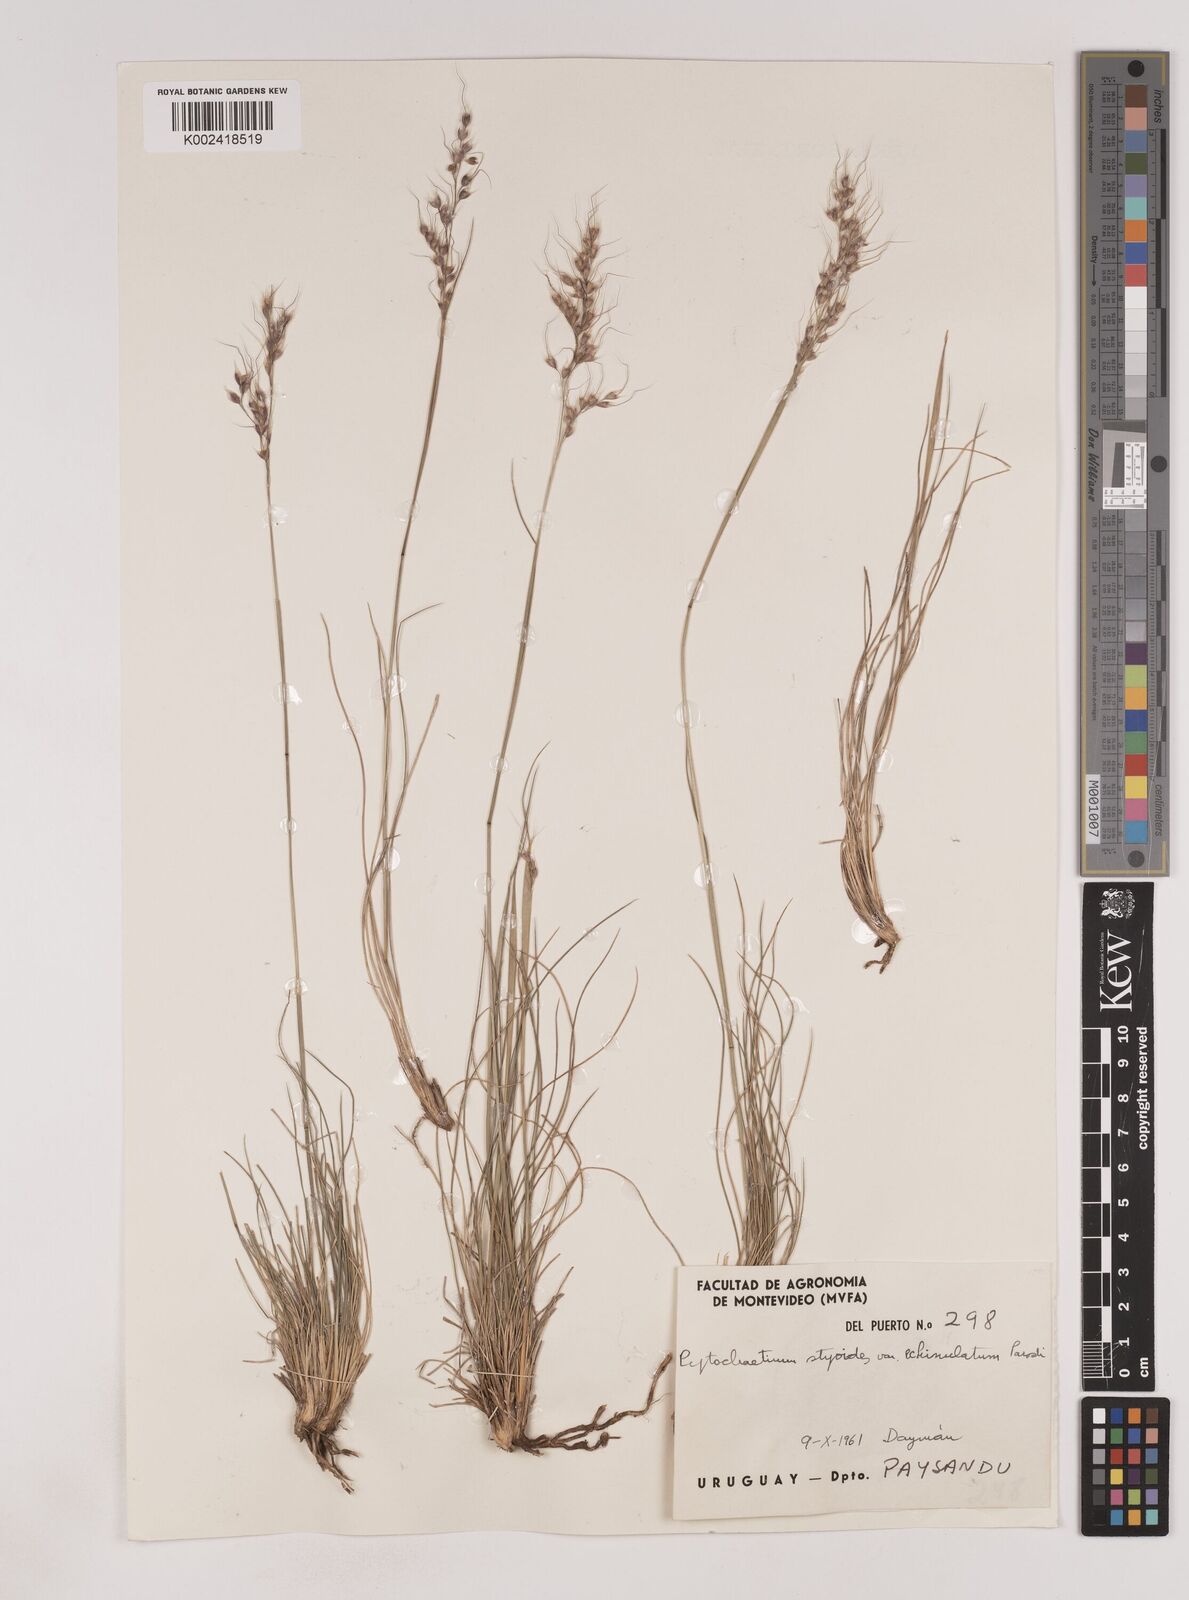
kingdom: Plantae
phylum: Tracheophyta
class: Liliopsida
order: Poales
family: Poaceae
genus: Piptochaetium
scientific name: Piptochaetium stipoides
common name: Purple speargrass
